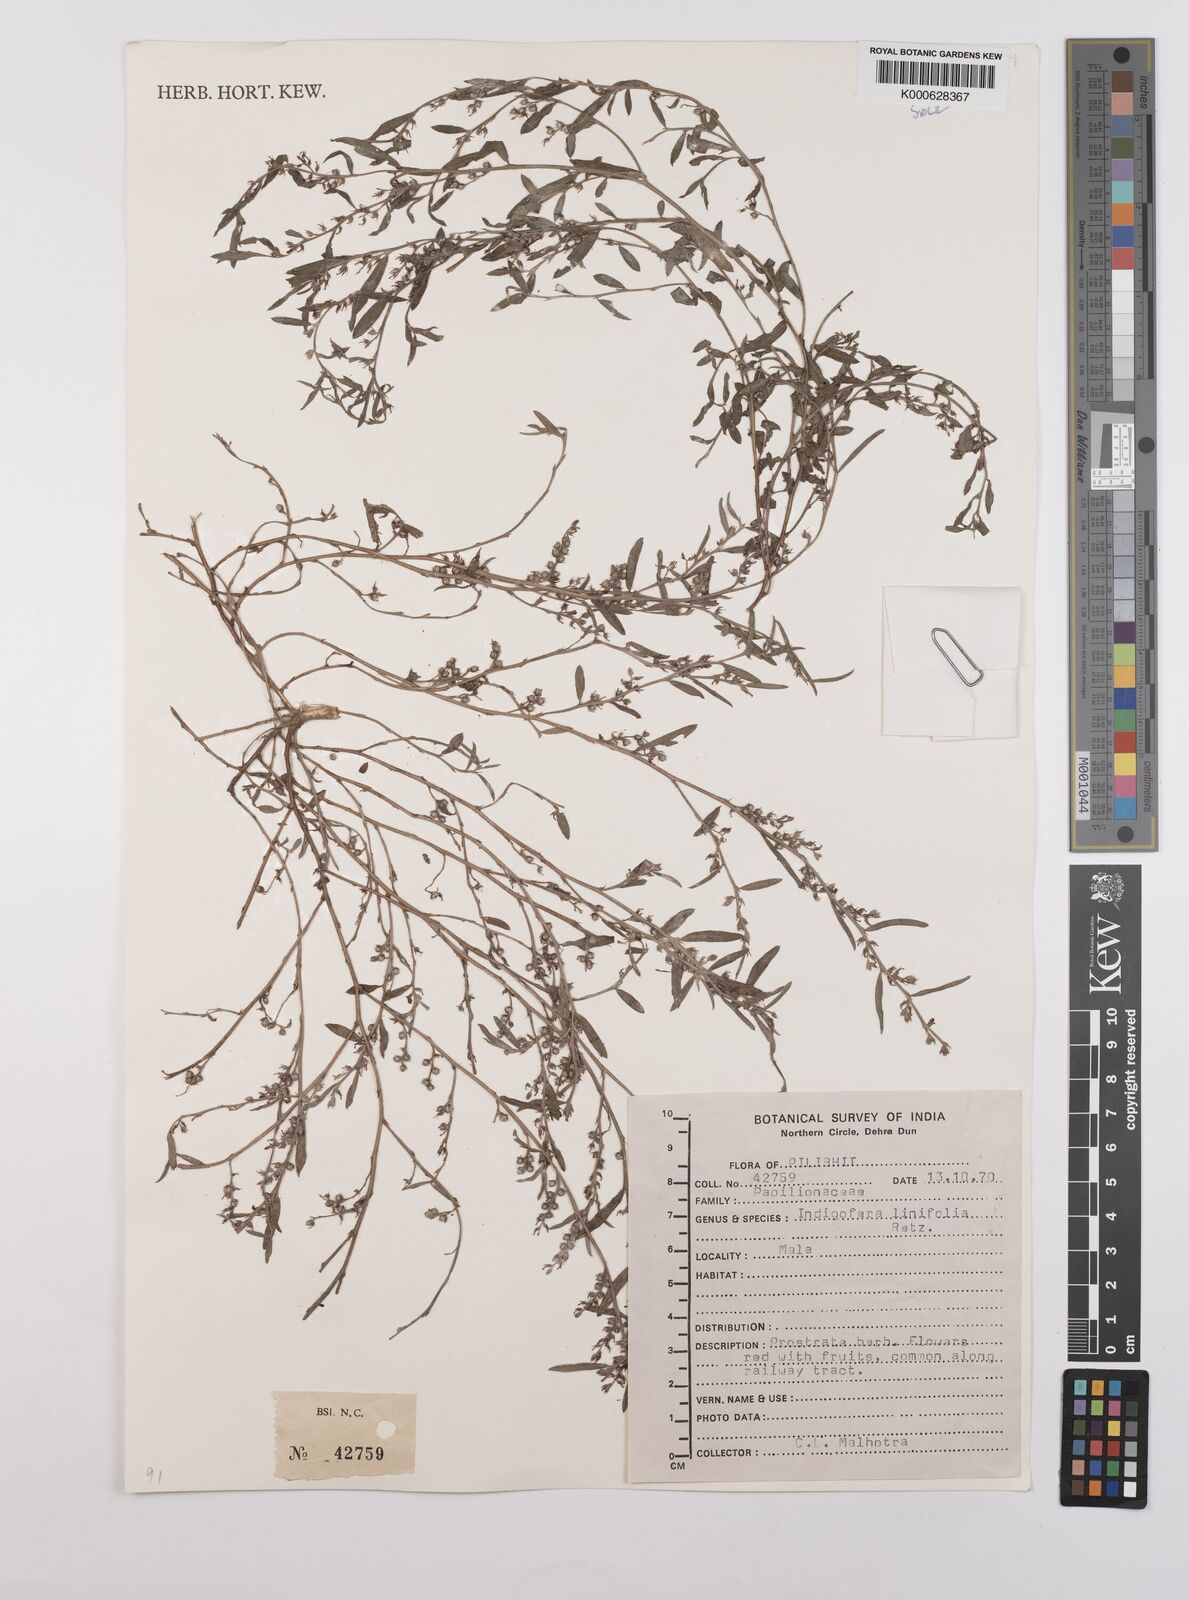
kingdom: Plantae
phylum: Tracheophyta
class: Magnoliopsida
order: Fabales
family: Fabaceae
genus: Indigofera
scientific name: Indigofera linifolia
